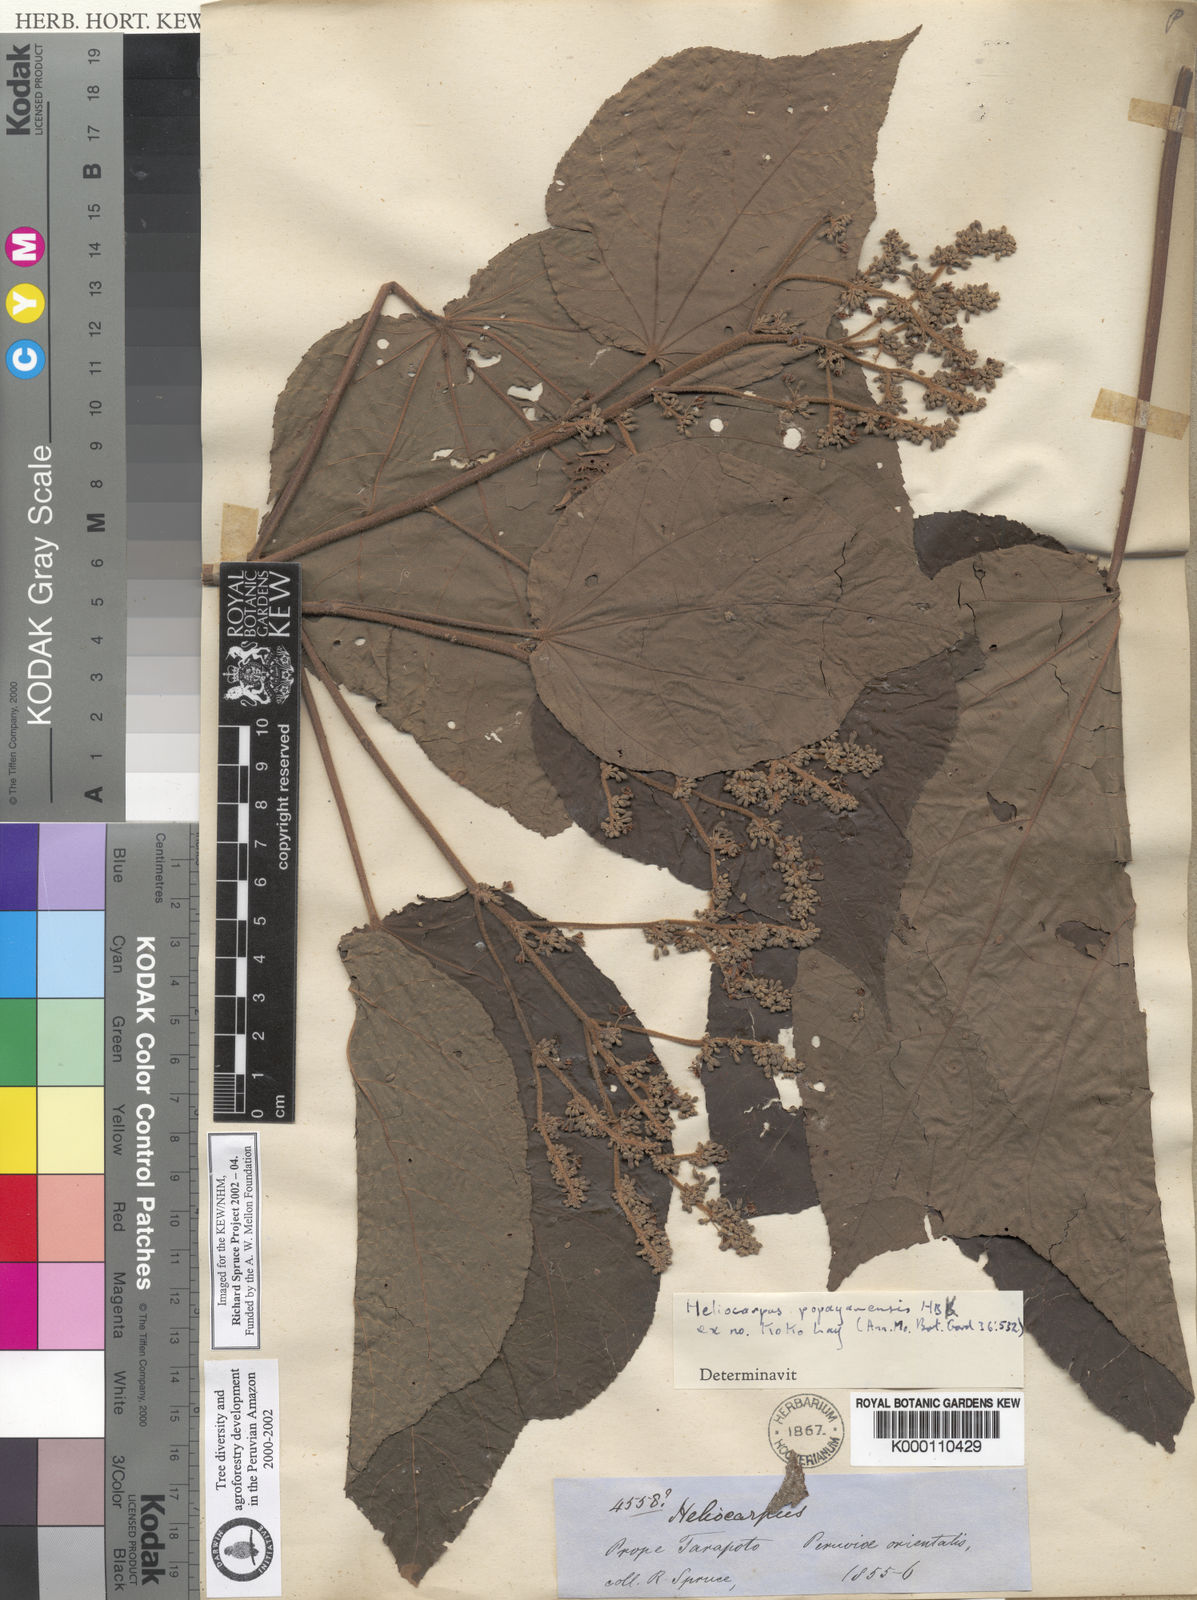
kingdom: Plantae
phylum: Tracheophyta
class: Magnoliopsida
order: Malvales
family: Malvaceae
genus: Heliocarpus
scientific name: Heliocarpus americanus
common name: White moho
